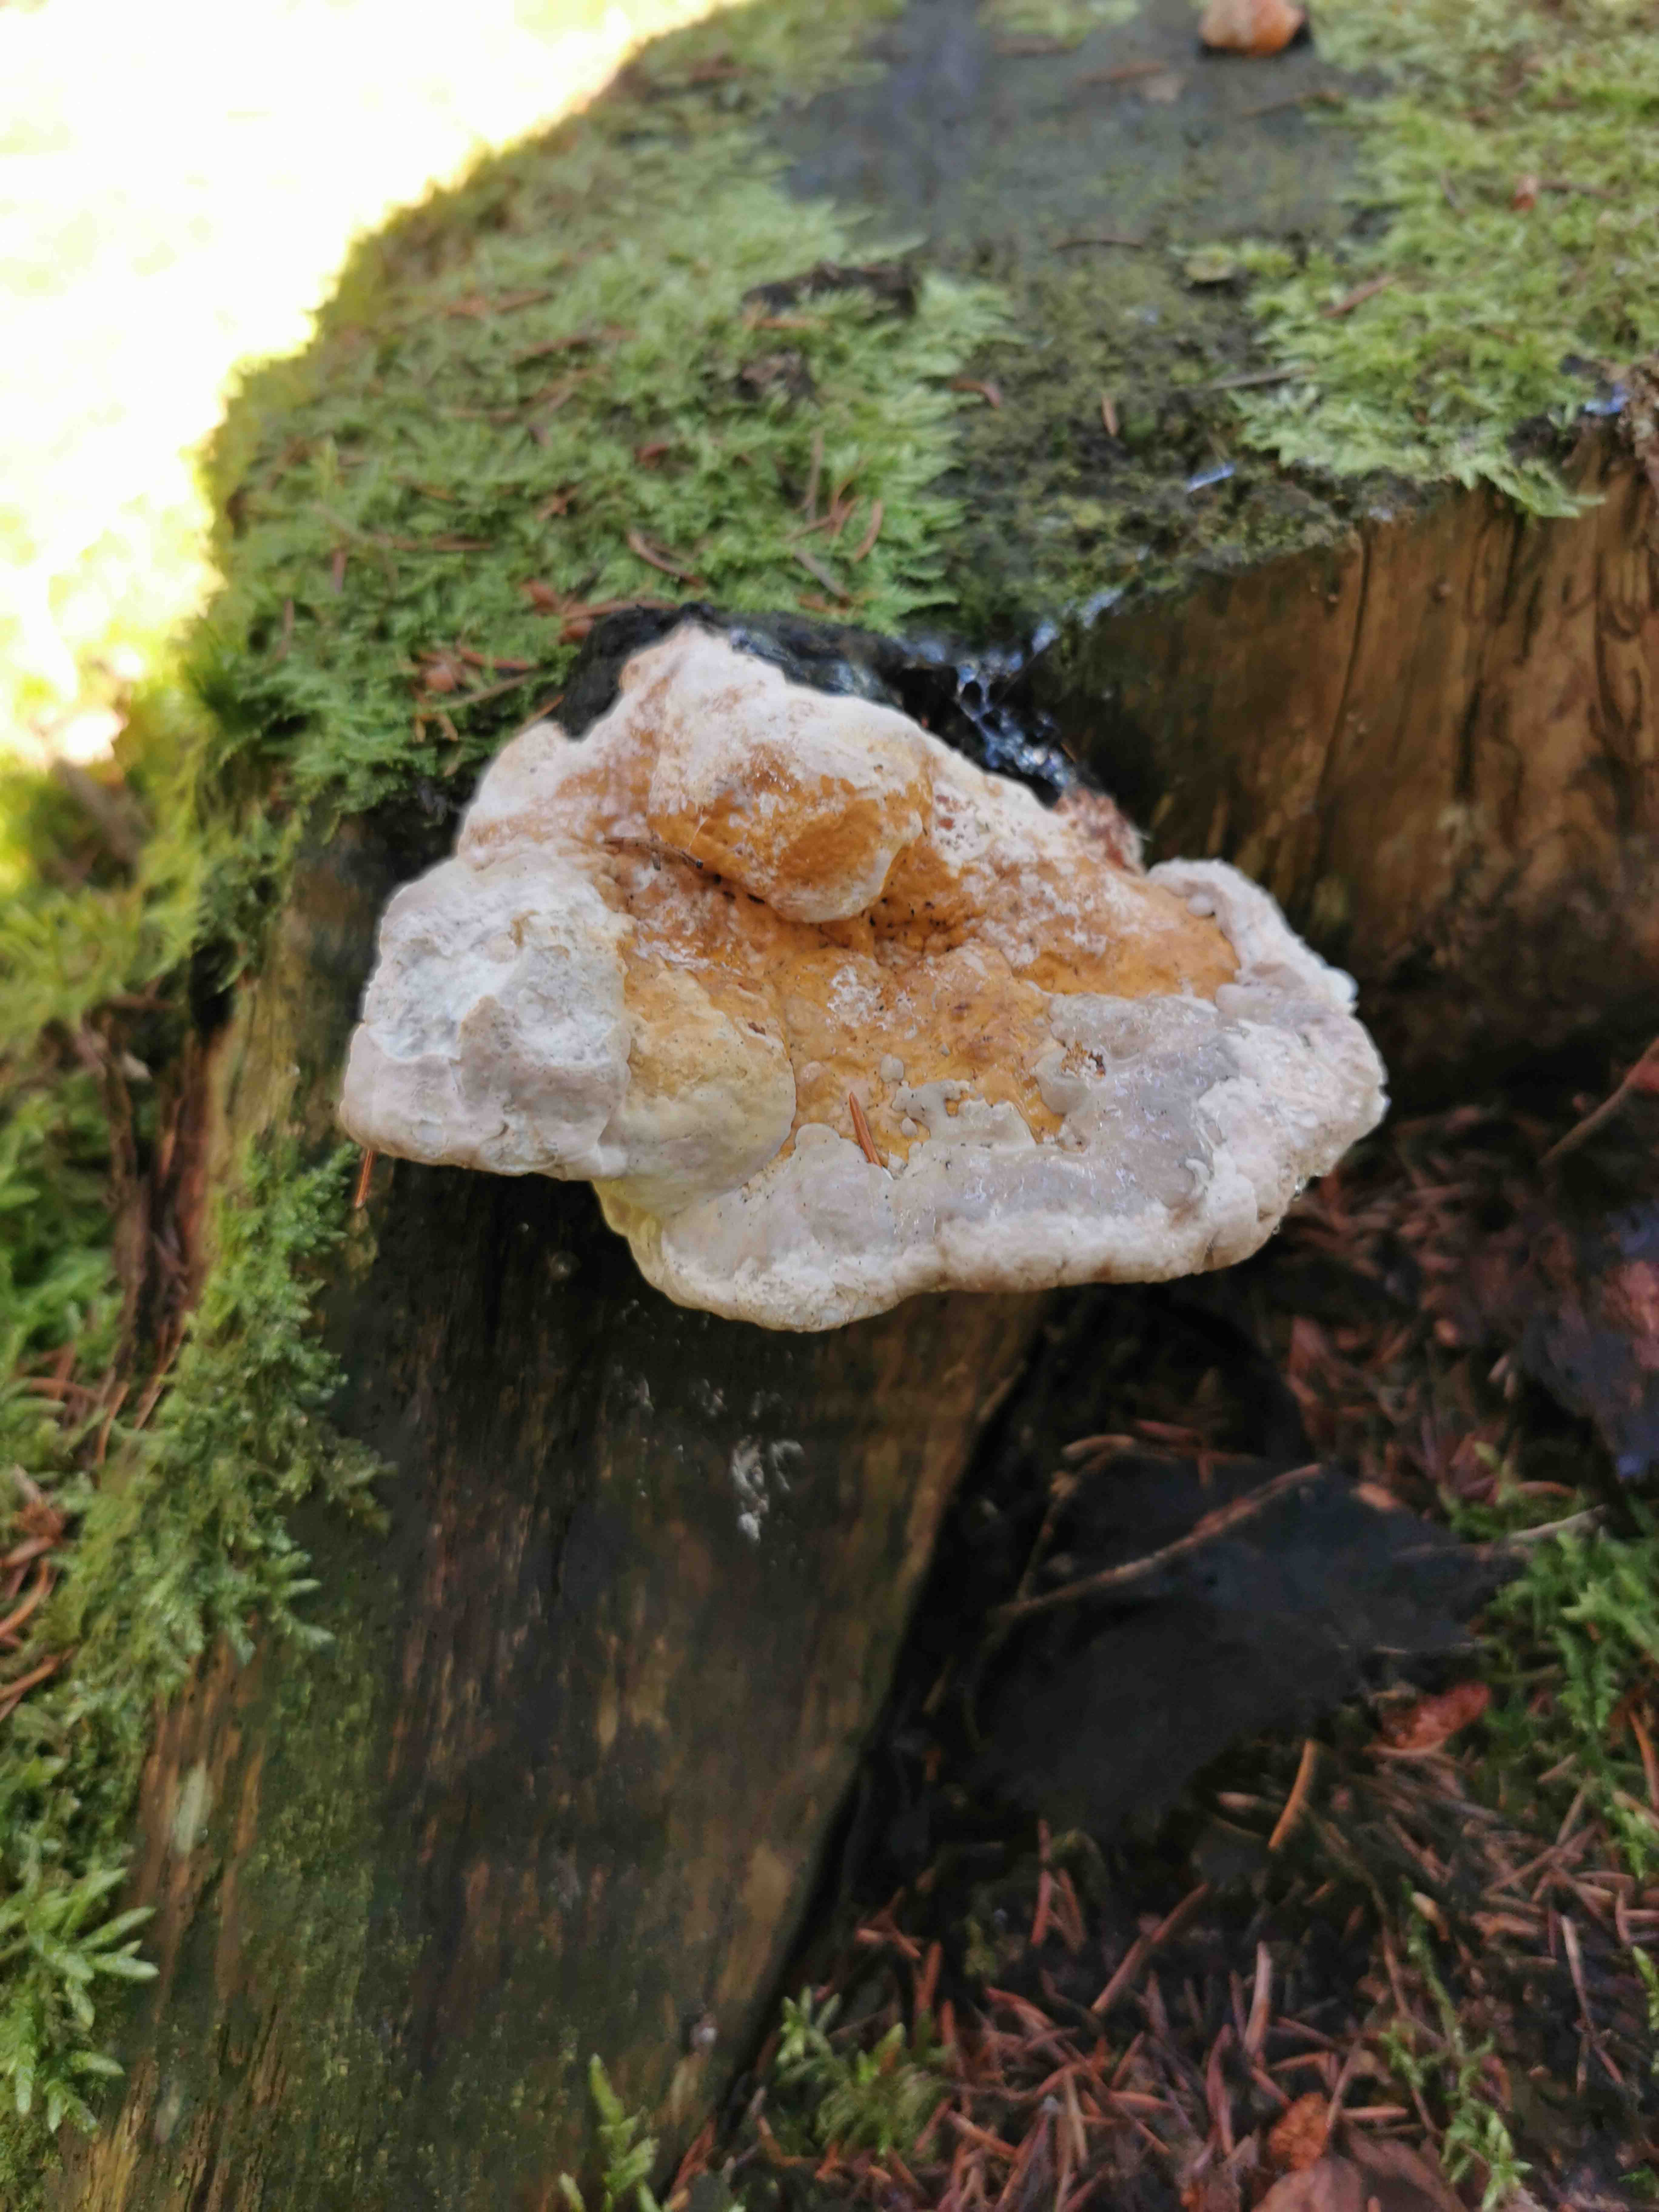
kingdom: Fungi
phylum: Basidiomycota
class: Agaricomycetes
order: Polyporales
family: Fomitopsidaceae
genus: Fomitopsis
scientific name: Fomitopsis pinicola
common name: randbæltet hovporesvamp
